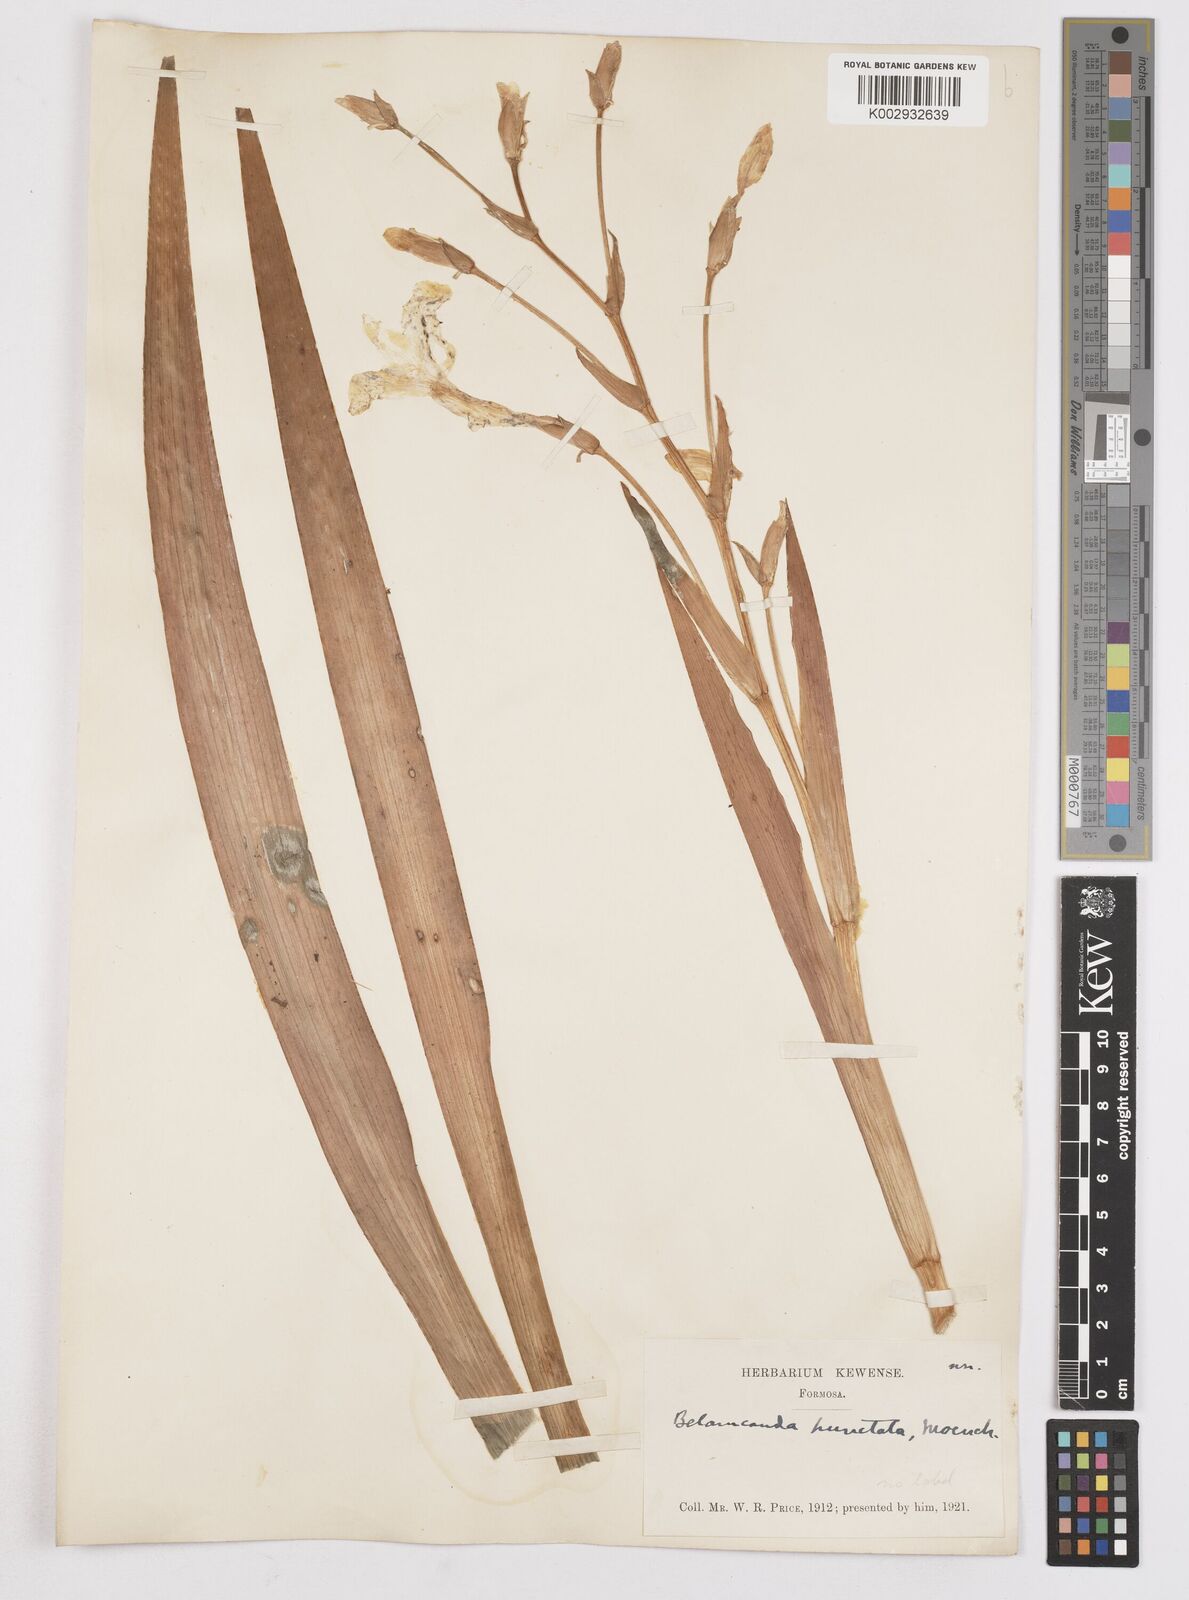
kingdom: Plantae
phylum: Tracheophyta
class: Liliopsida
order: Asparagales
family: Iridaceae
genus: Iris
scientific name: Iris
